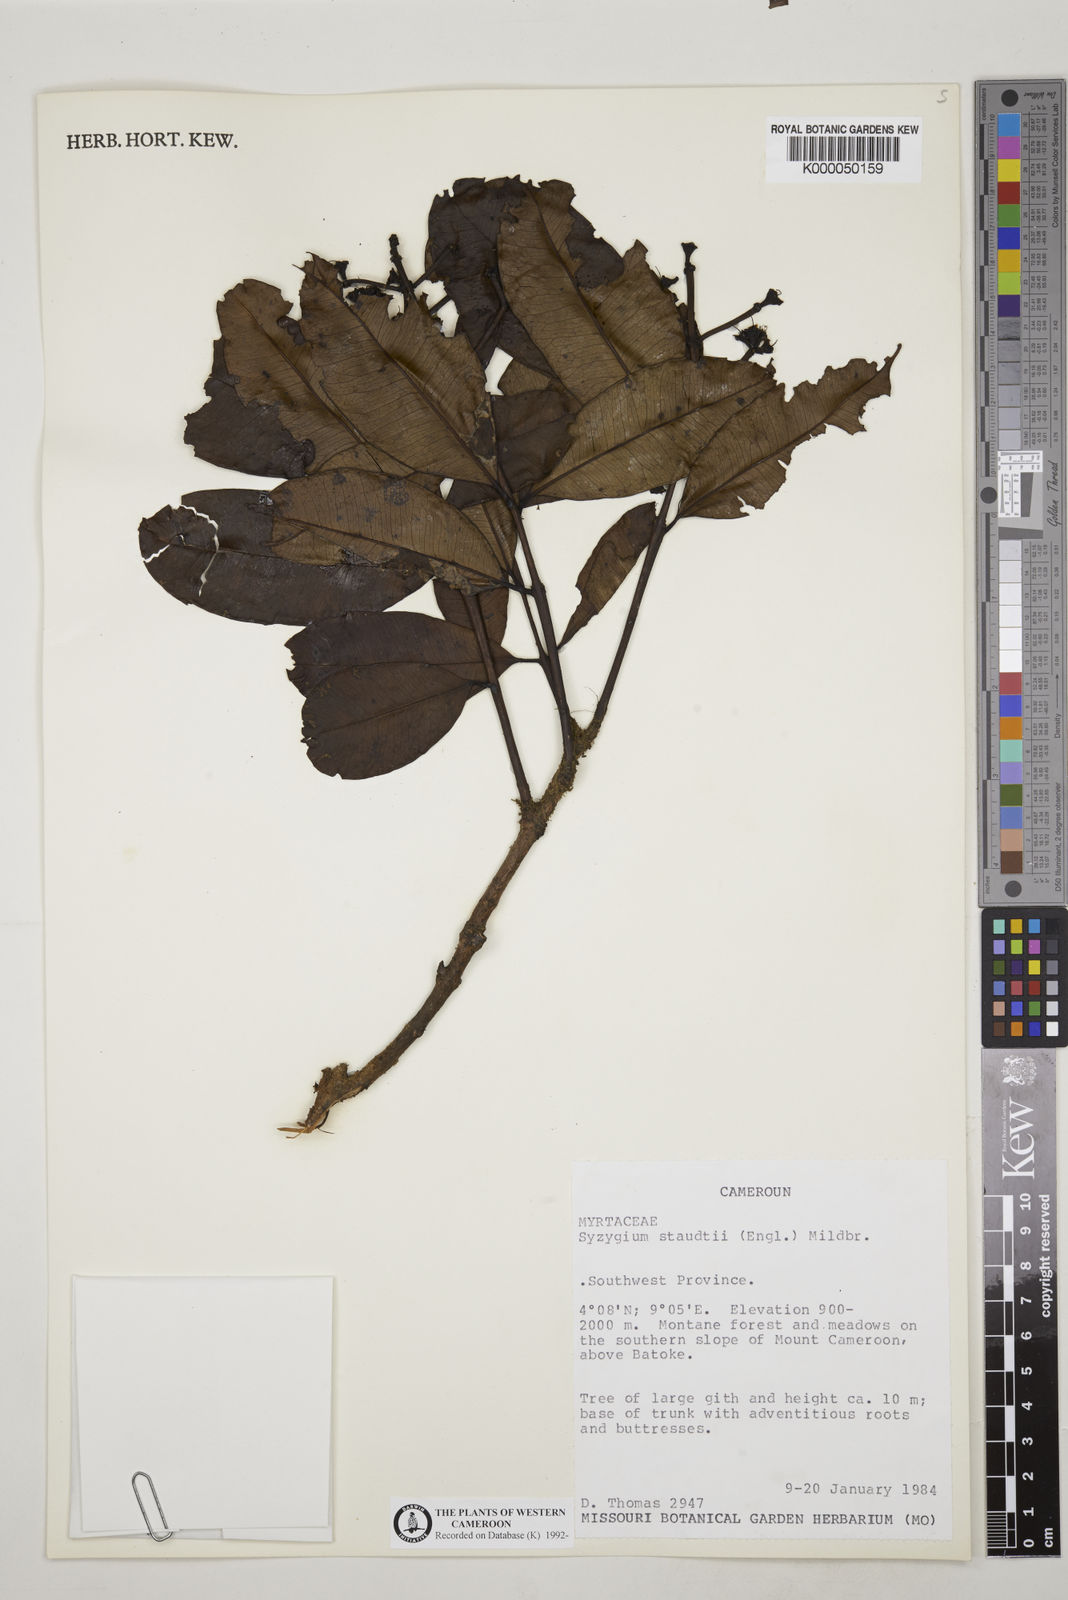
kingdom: Plantae
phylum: Tracheophyta
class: Magnoliopsida
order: Myrtales
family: Myrtaceae
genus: Syzygium
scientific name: Syzygium staudtii
